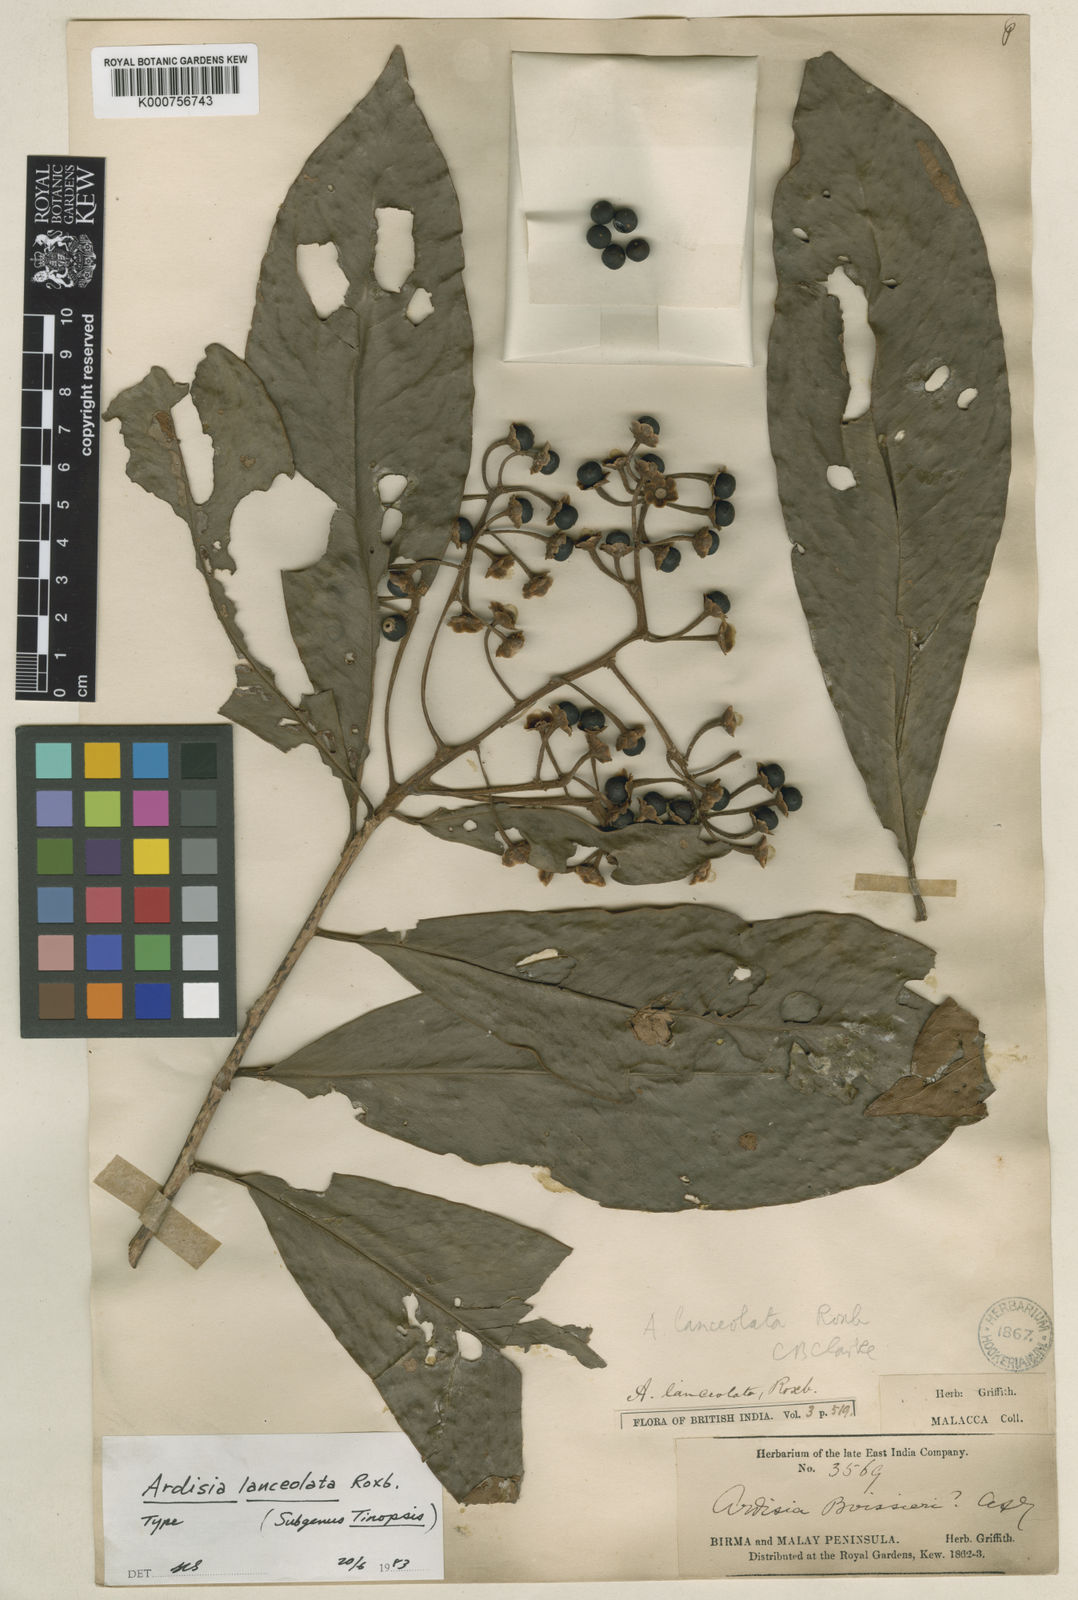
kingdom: Plantae
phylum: Tracheophyta
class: Magnoliopsida
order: Ericales
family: Primulaceae
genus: Ardisia
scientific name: Ardisia purpurea
